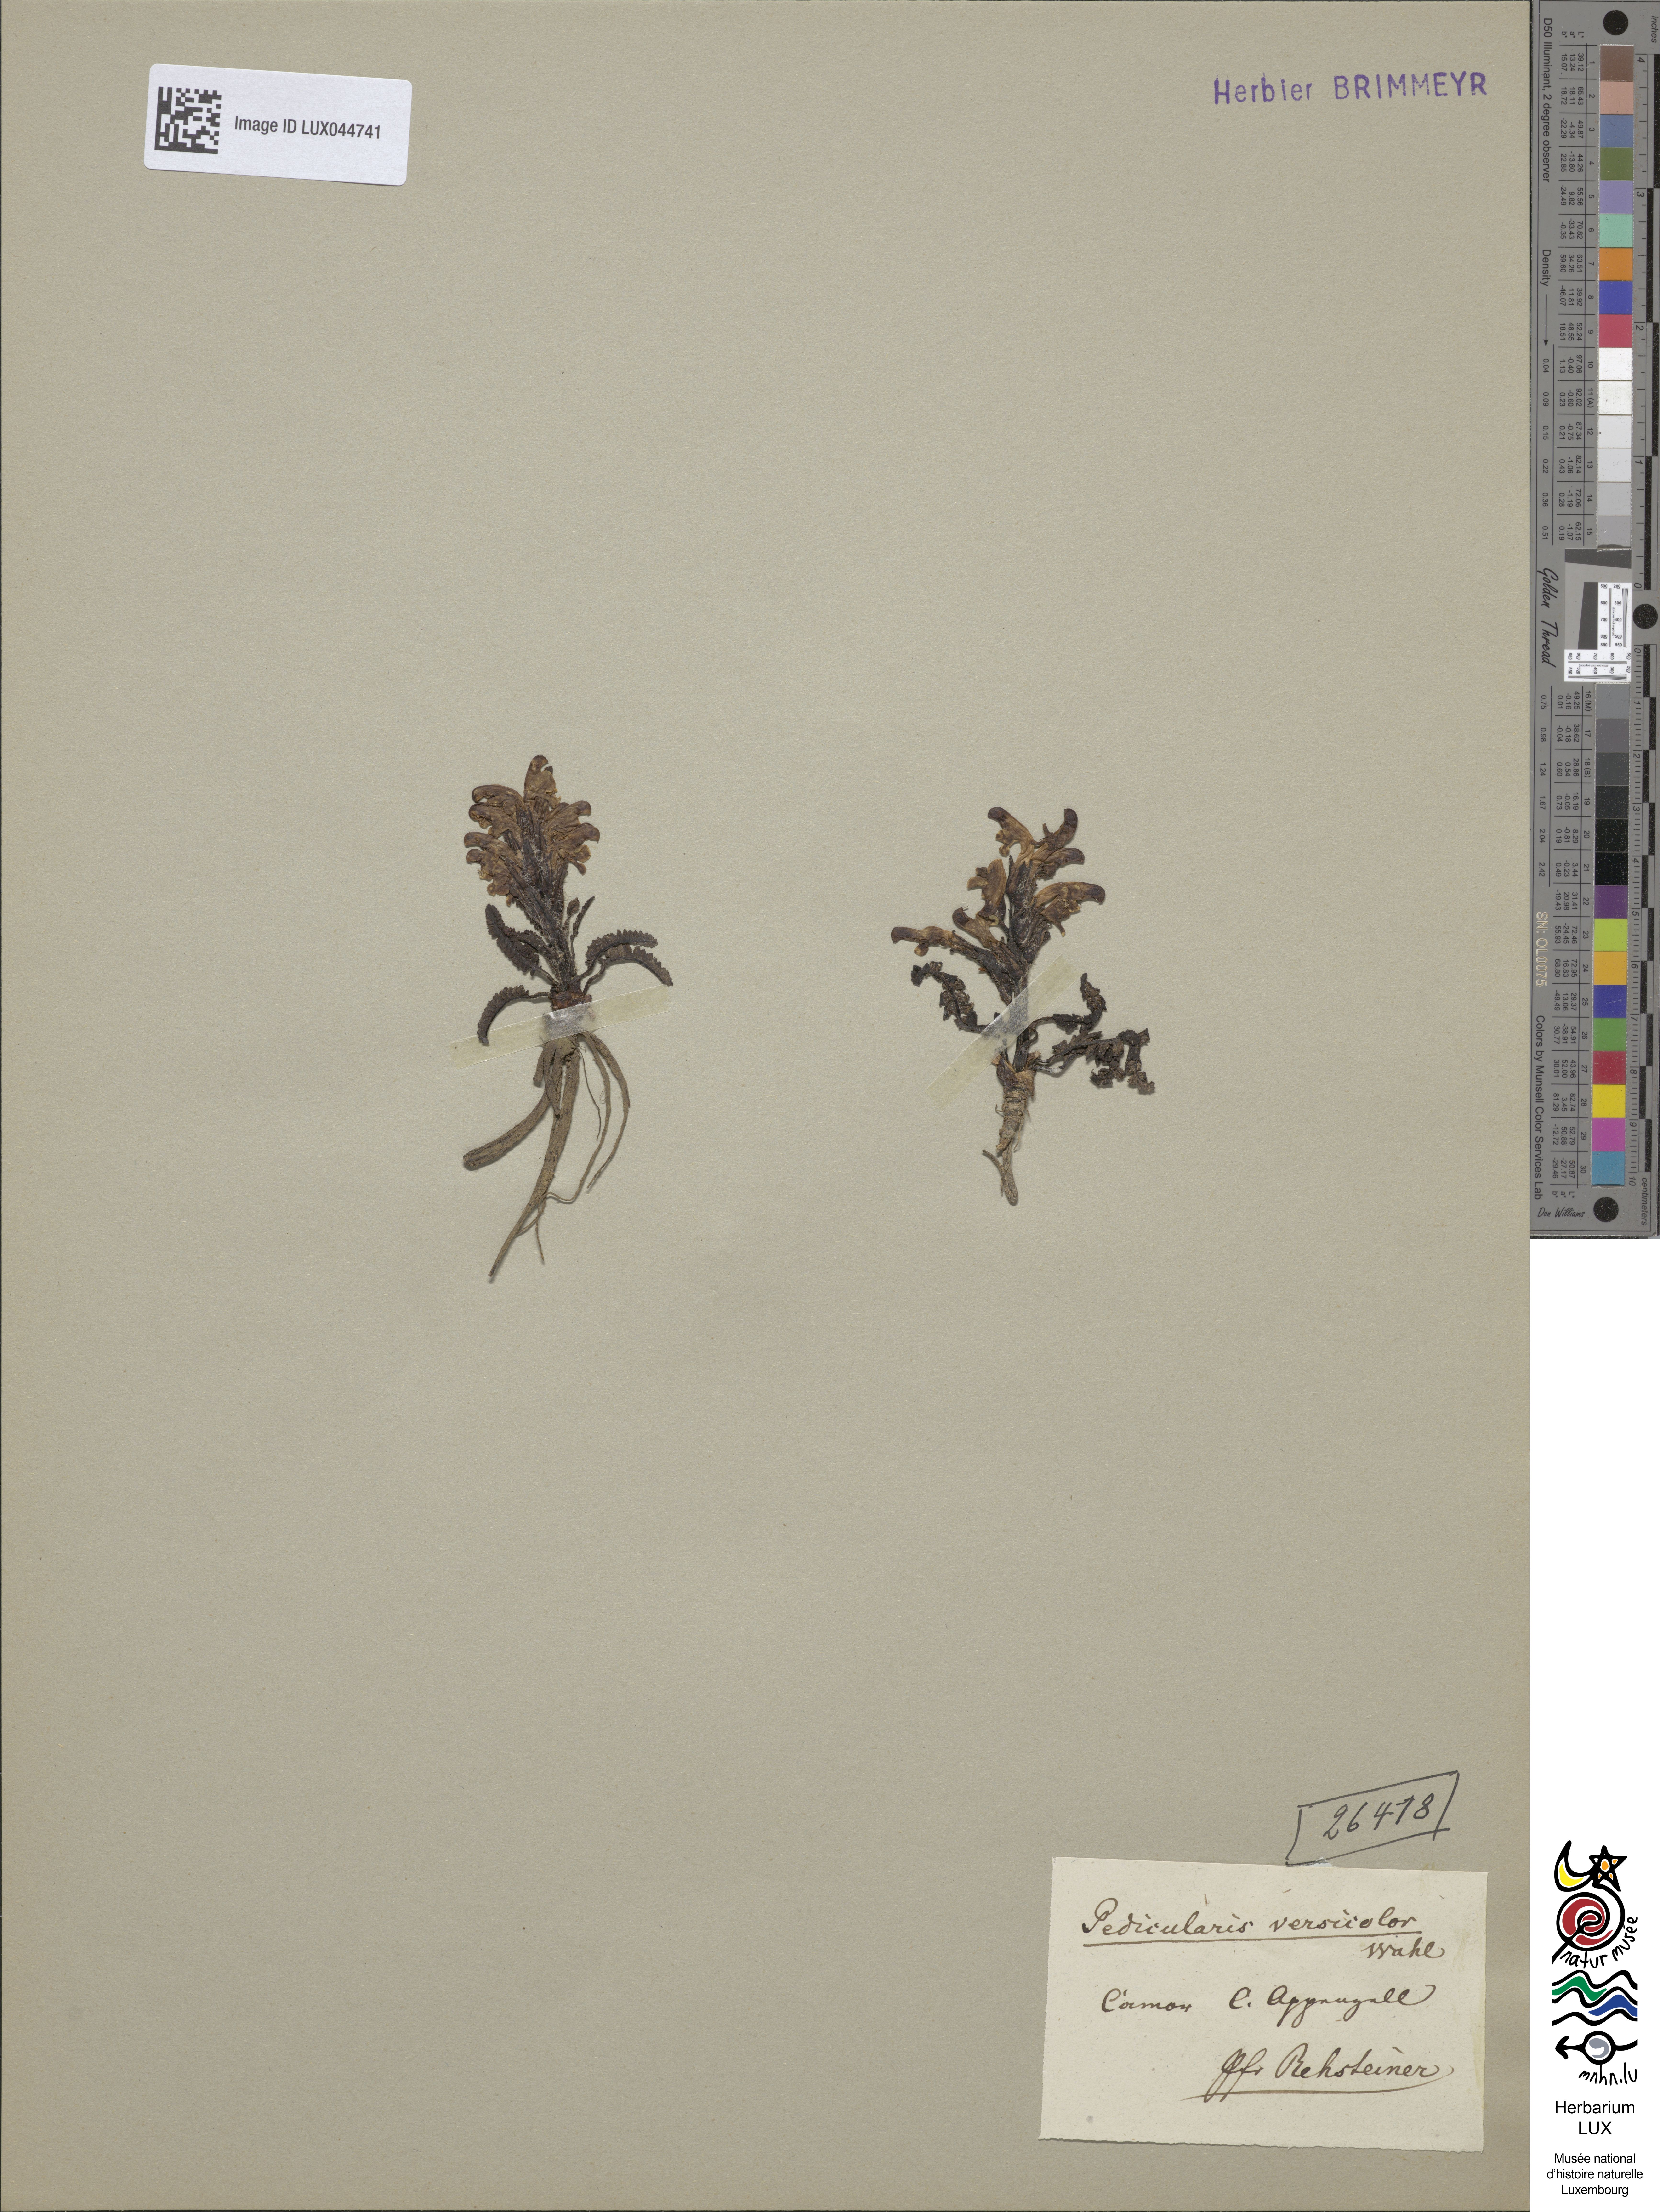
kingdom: Plantae
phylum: Tracheophyta
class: Magnoliopsida
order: Lamiales
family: Orobanchaceae
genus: Pedicularis
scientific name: Pedicularis oederi
